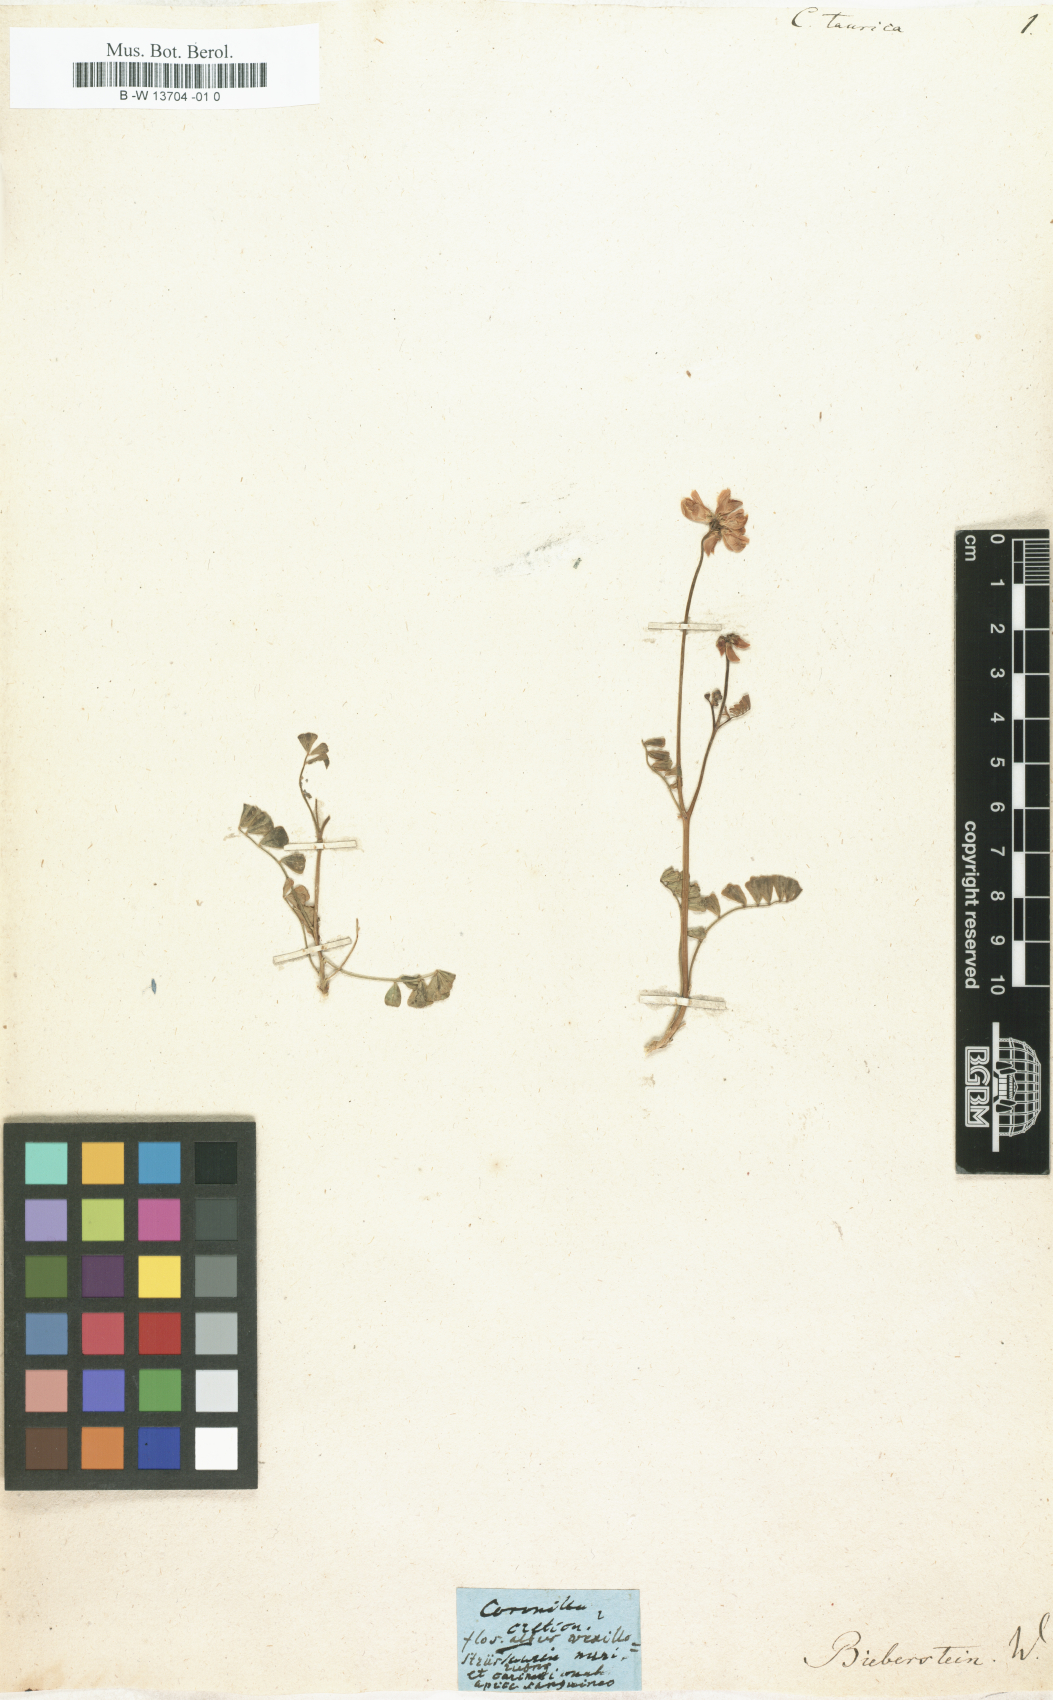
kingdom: Plantae
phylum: Tracheophyta
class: Magnoliopsida
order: Fabales
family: Fabaceae
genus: Coronilla
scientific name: Coronilla
